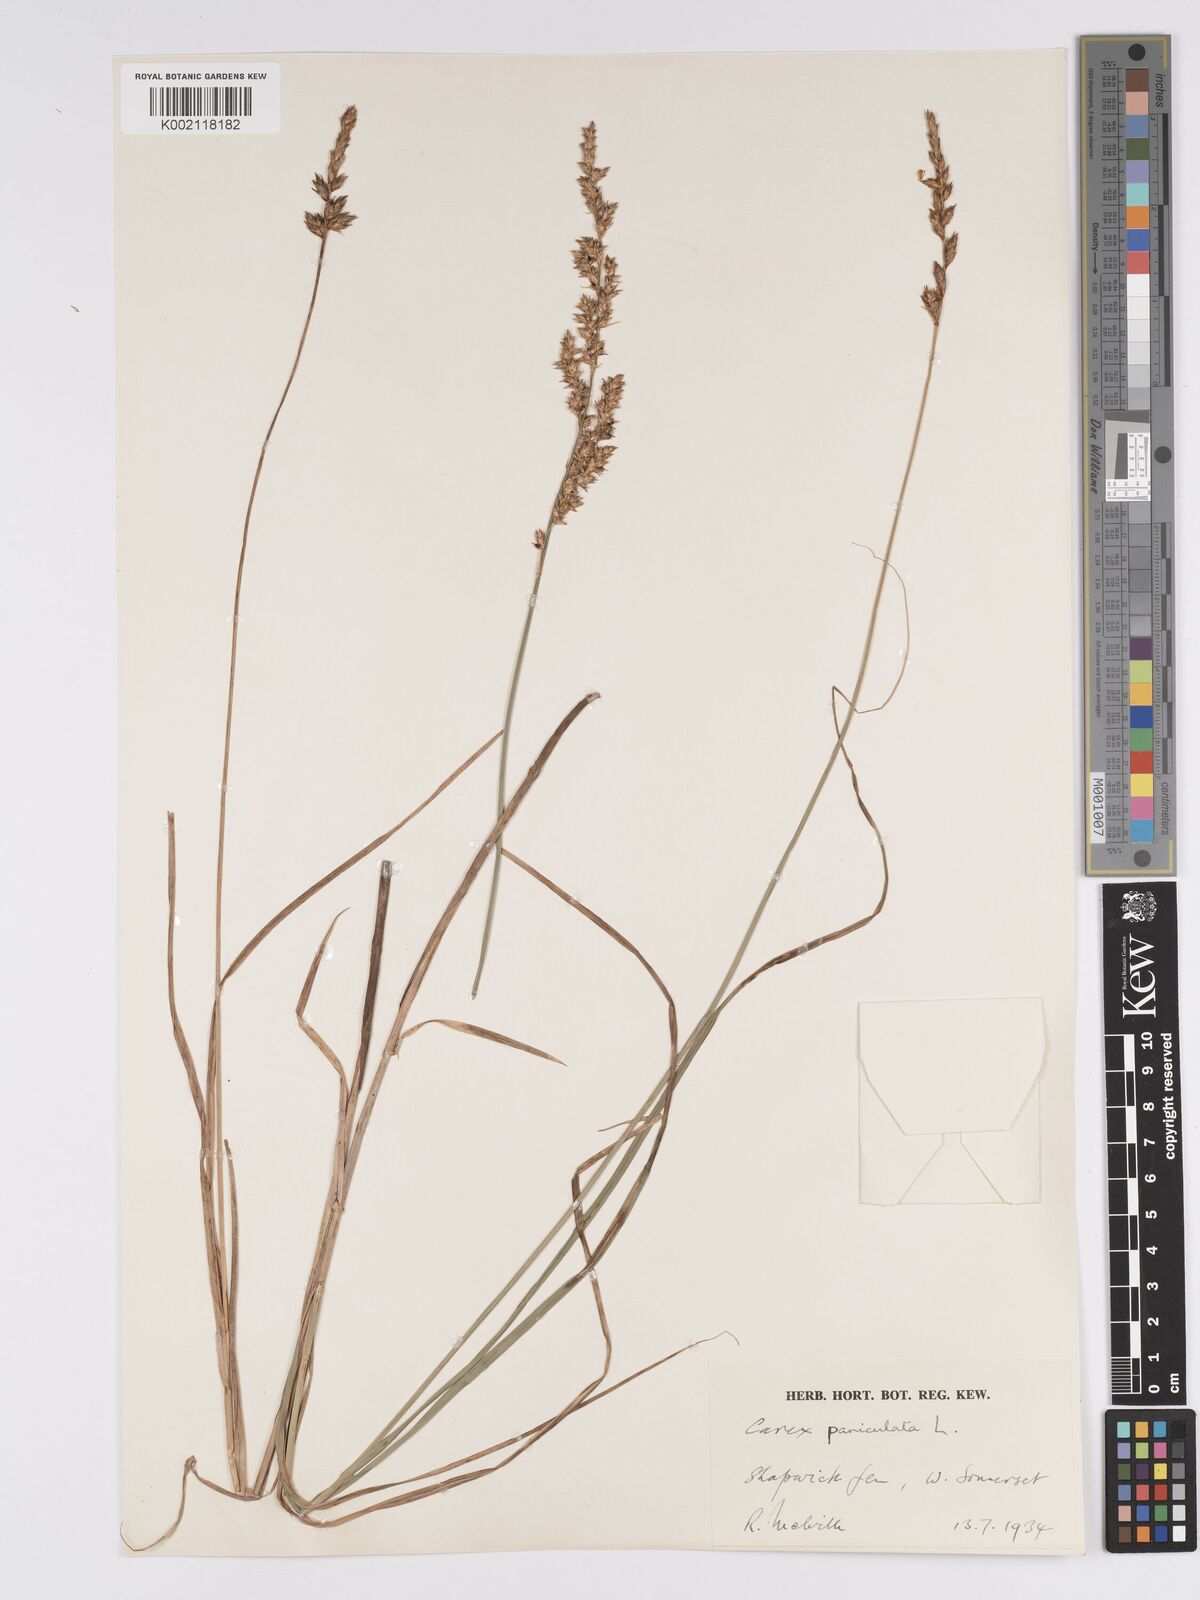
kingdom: Plantae
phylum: Tracheophyta
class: Liliopsida
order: Poales
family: Cyperaceae
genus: Carex
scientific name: Carex paniculata
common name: Greater tussock-sedge
